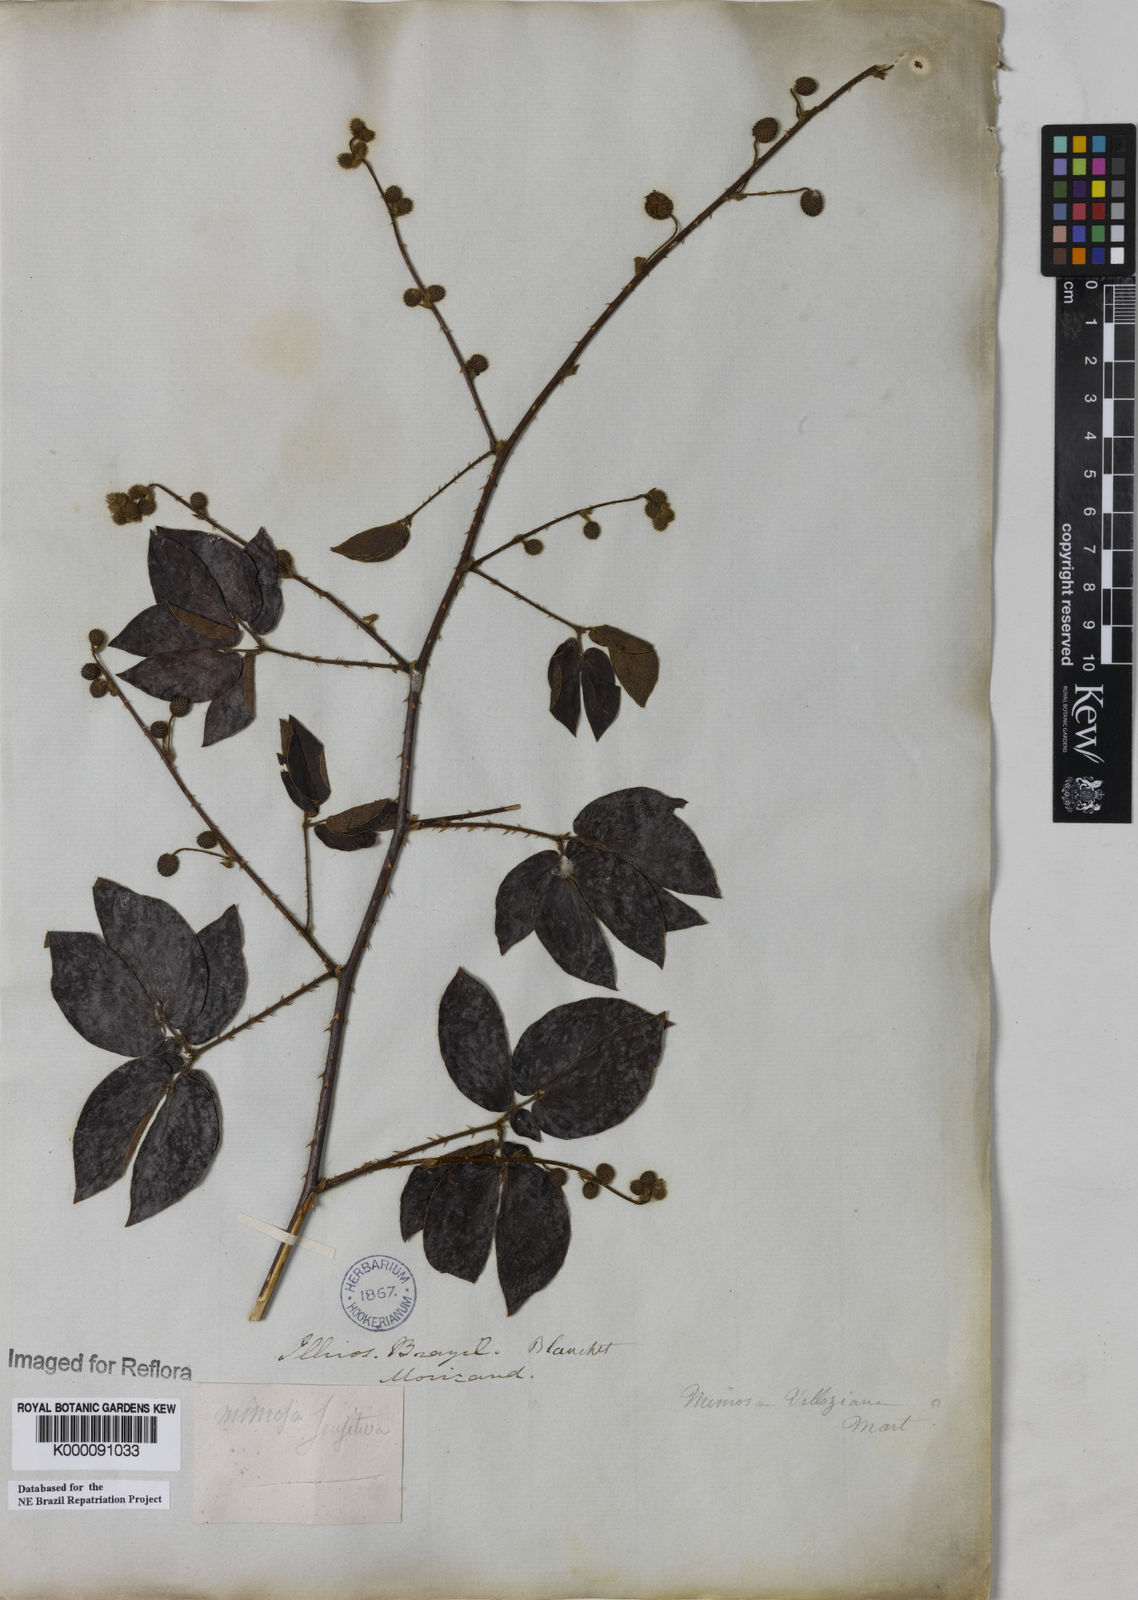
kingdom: Plantae
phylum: Tracheophyta
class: Magnoliopsida
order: Fabales
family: Fabaceae
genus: Mimosa
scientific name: Mimosa velloziana
